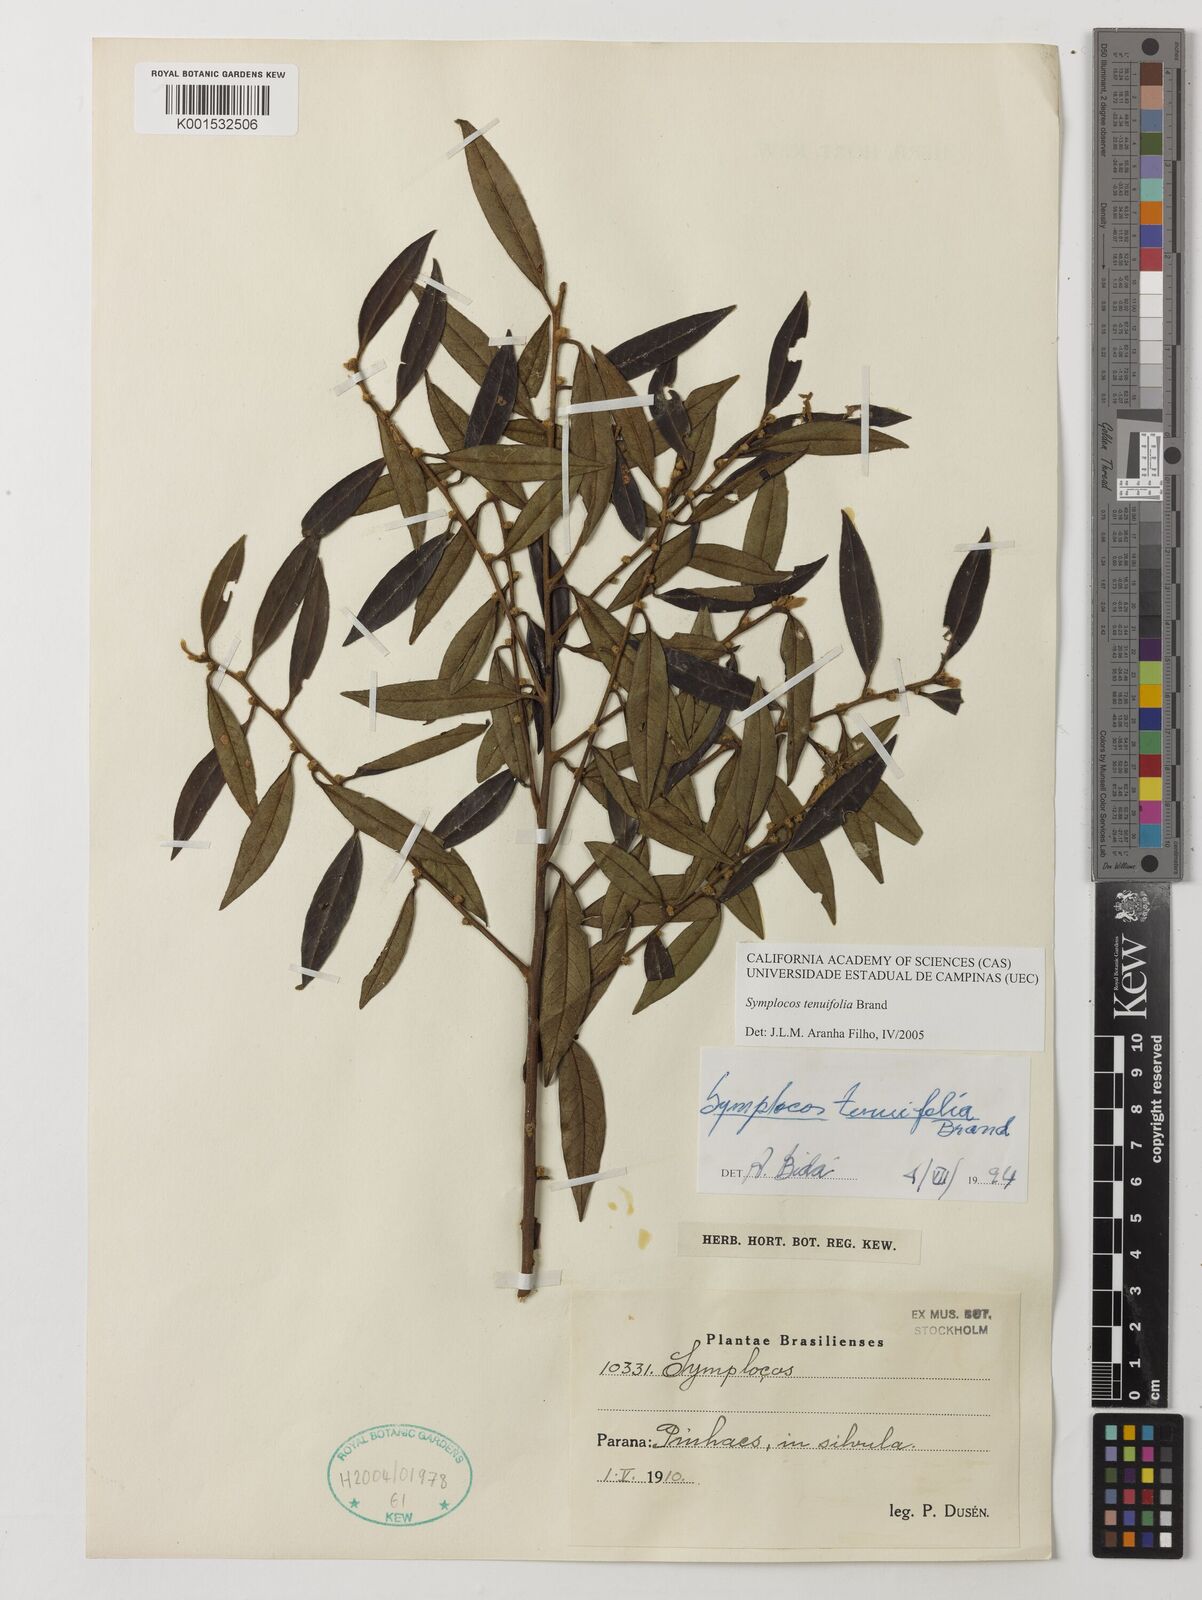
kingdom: Plantae
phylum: Tracheophyta
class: Magnoliopsida
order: Ericales
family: Symplocaceae
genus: Symplocos
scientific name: Symplocos tenuifolia
